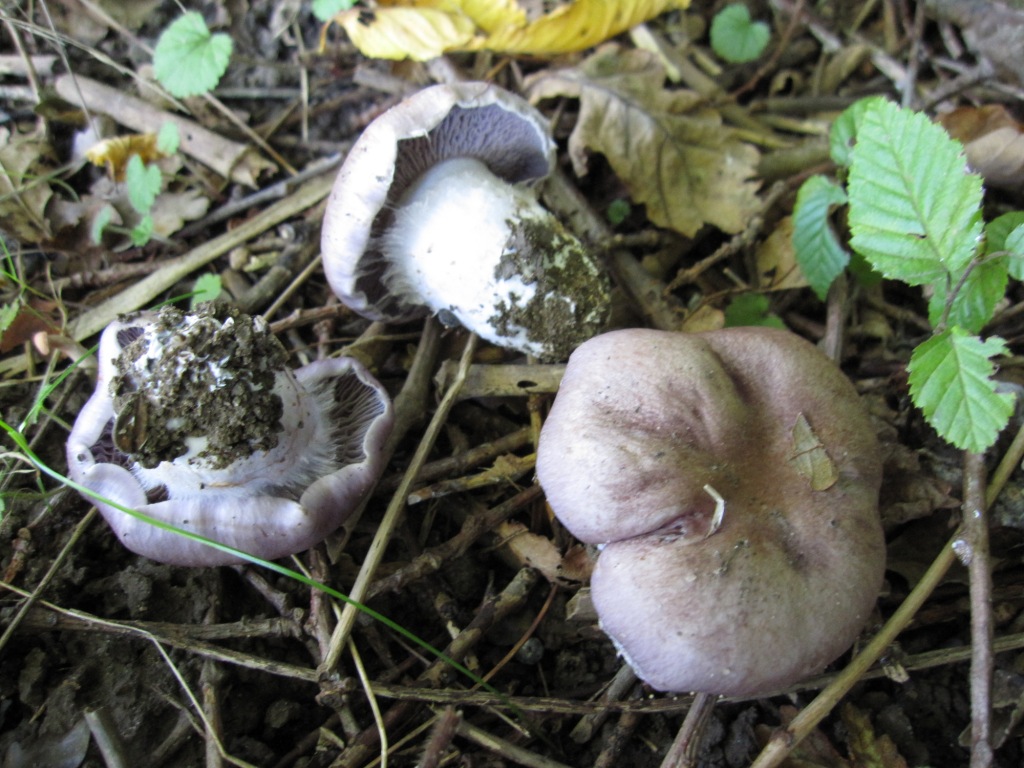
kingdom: Fungi
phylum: Basidiomycota
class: Agaricomycetes
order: Agaricales
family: Cortinariaceae
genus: Thaxterogaster
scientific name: Thaxterogaster subpurpurascens
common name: mørkblånende slørhat
